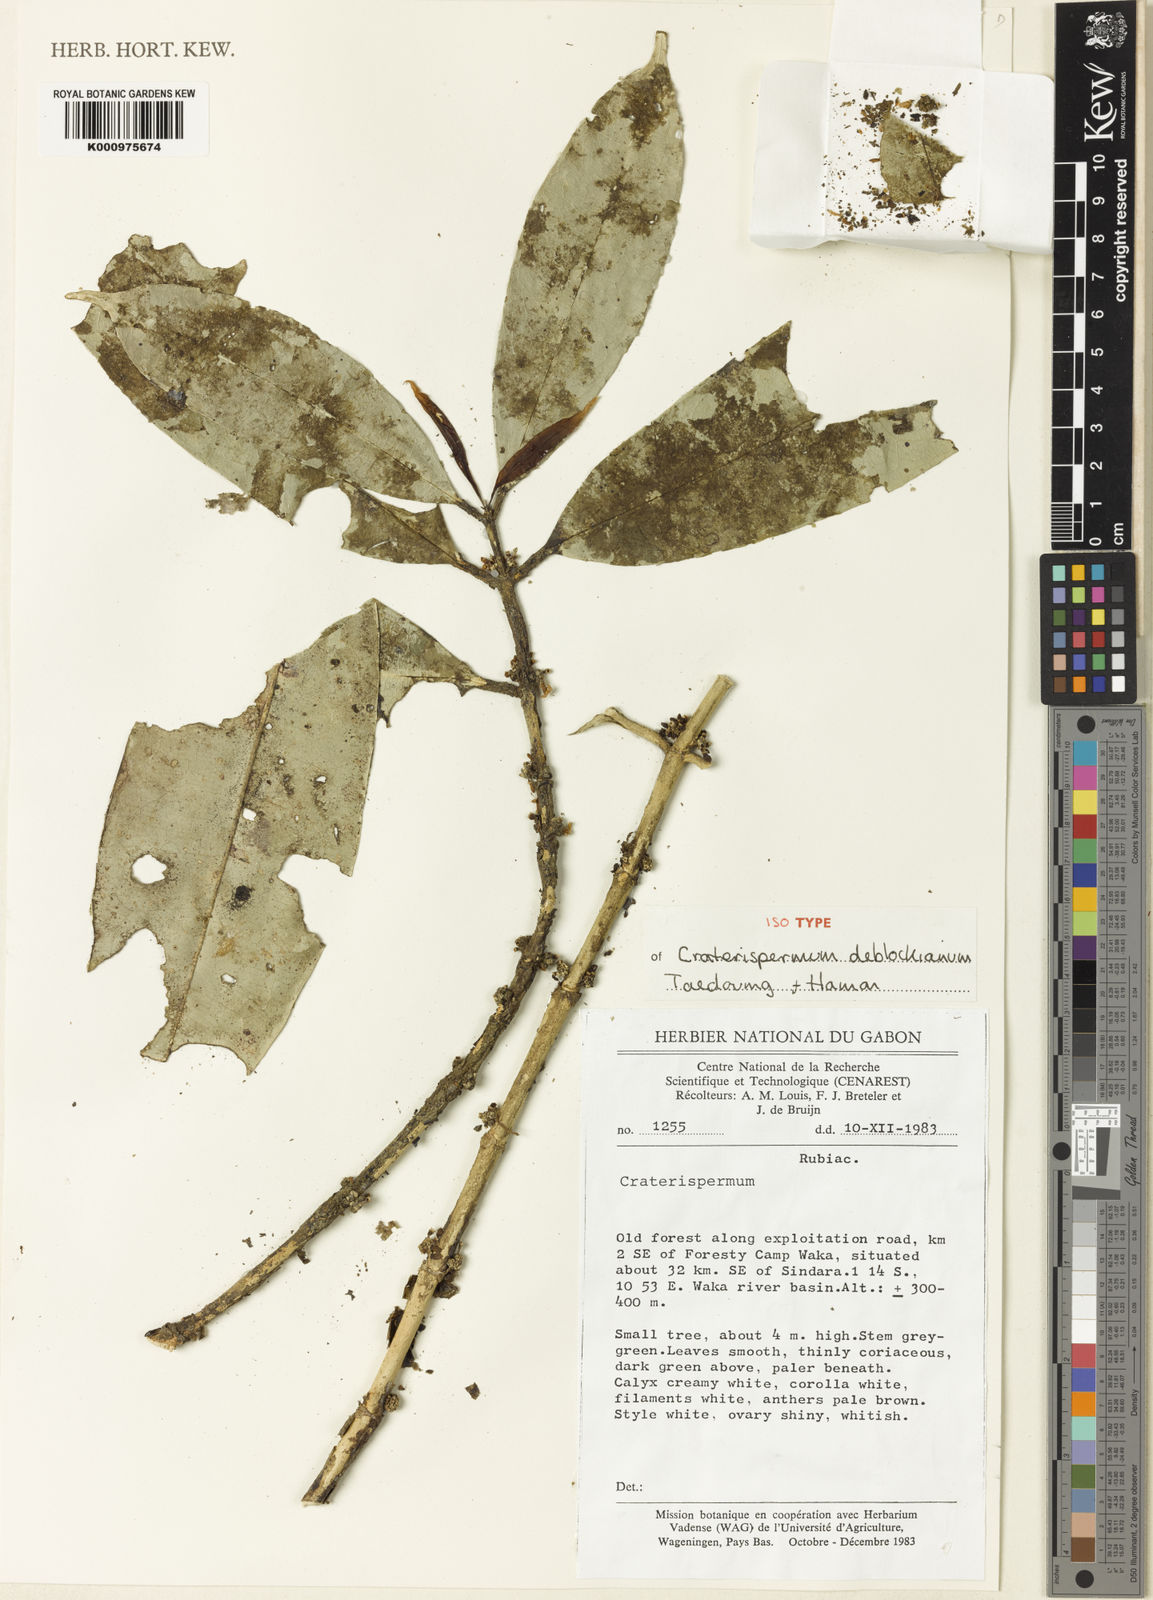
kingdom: Plantae
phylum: Tracheophyta
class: Magnoliopsida
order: Gentianales
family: Rubiaceae
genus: Craterispermum
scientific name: Craterispermum deblockianum
